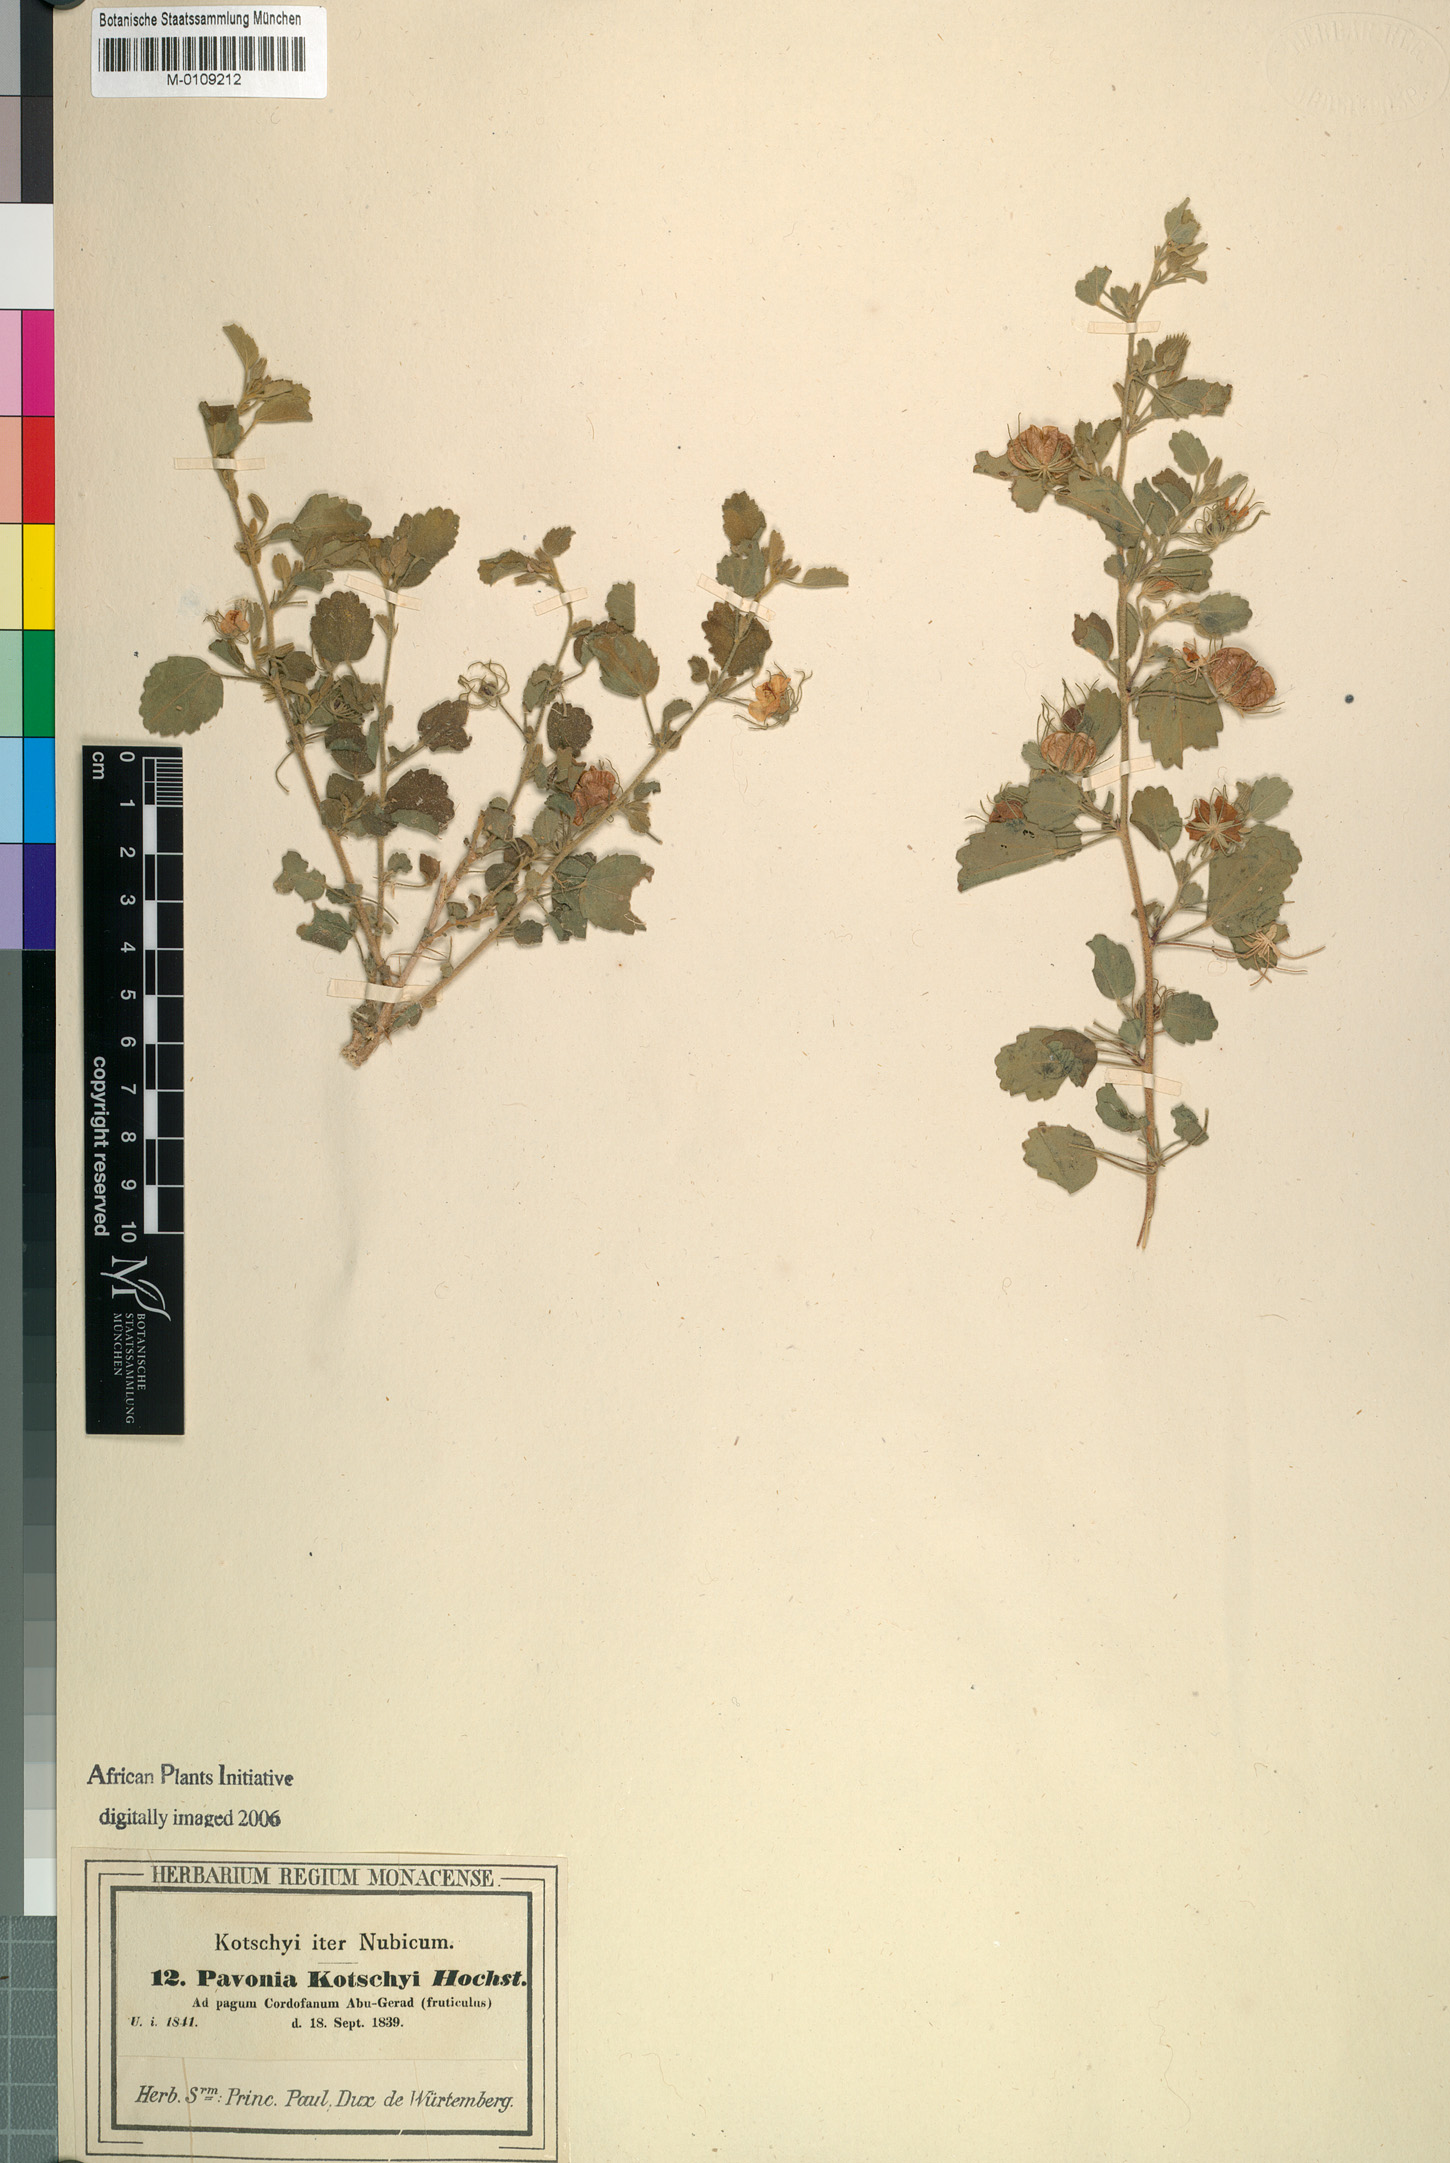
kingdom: Plantae
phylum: Tracheophyta
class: Magnoliopsida
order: Malvales
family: Malvaceae
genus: Pavonia
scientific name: Pavonia kotschyi
